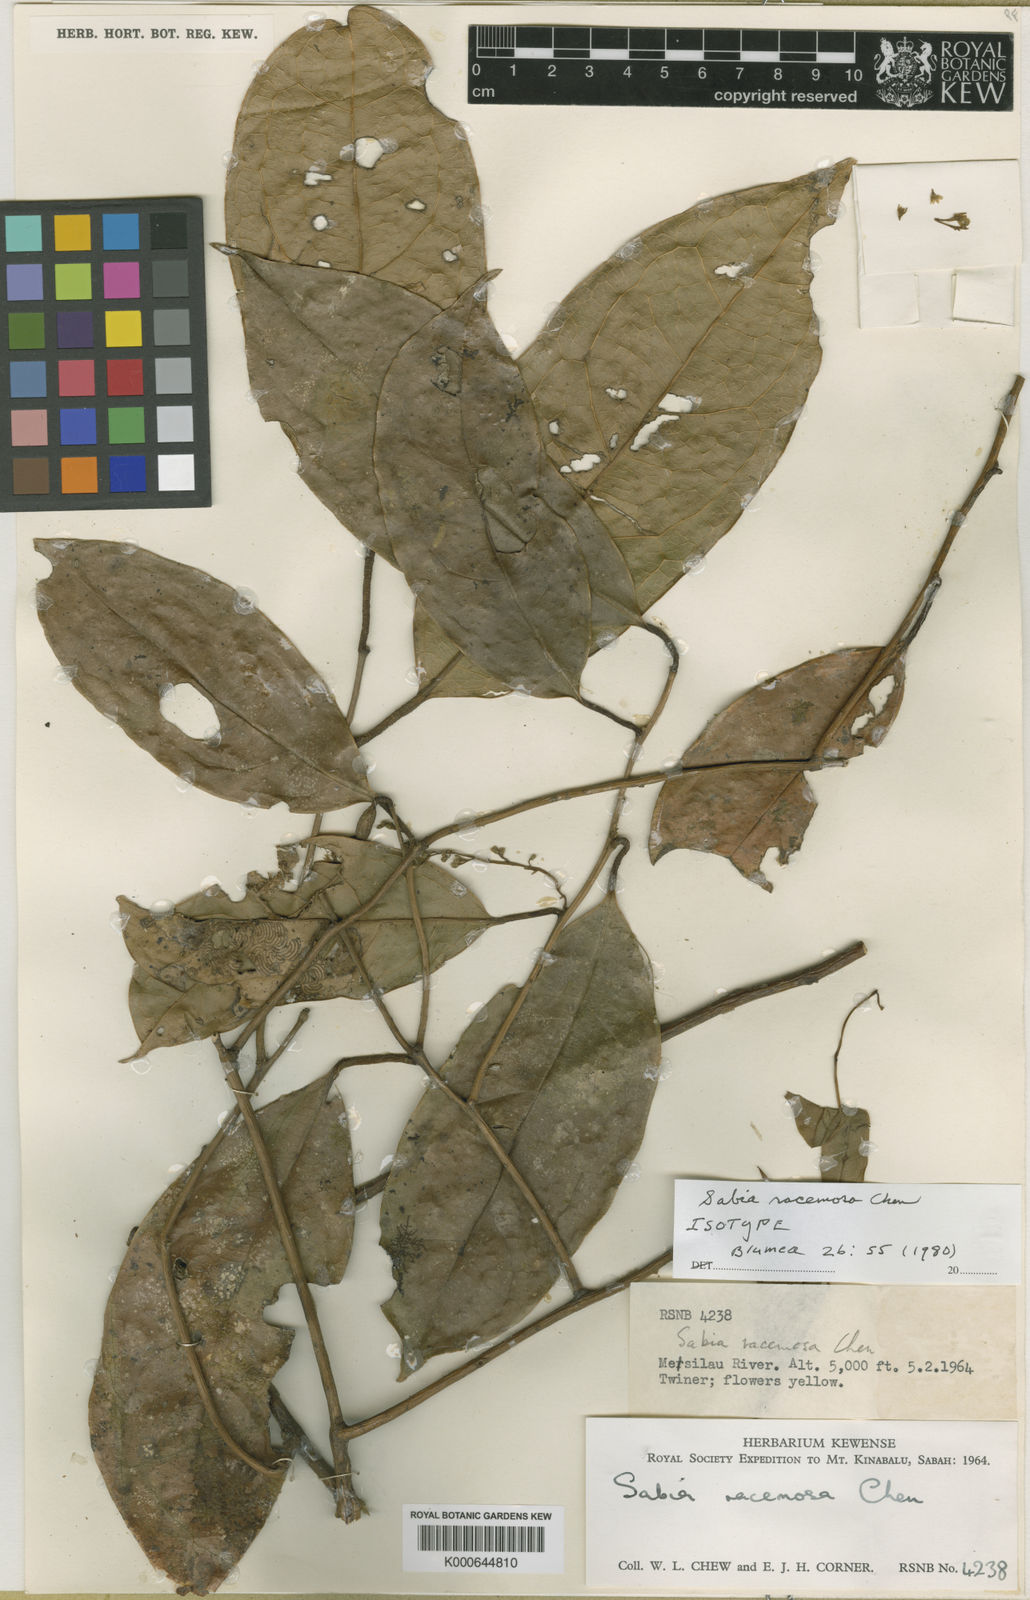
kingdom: Plantae
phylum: Tracheophyta
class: Magnoliopsida
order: Proteales
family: Sabiaceae
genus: Sabia
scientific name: Sabia racemosa
